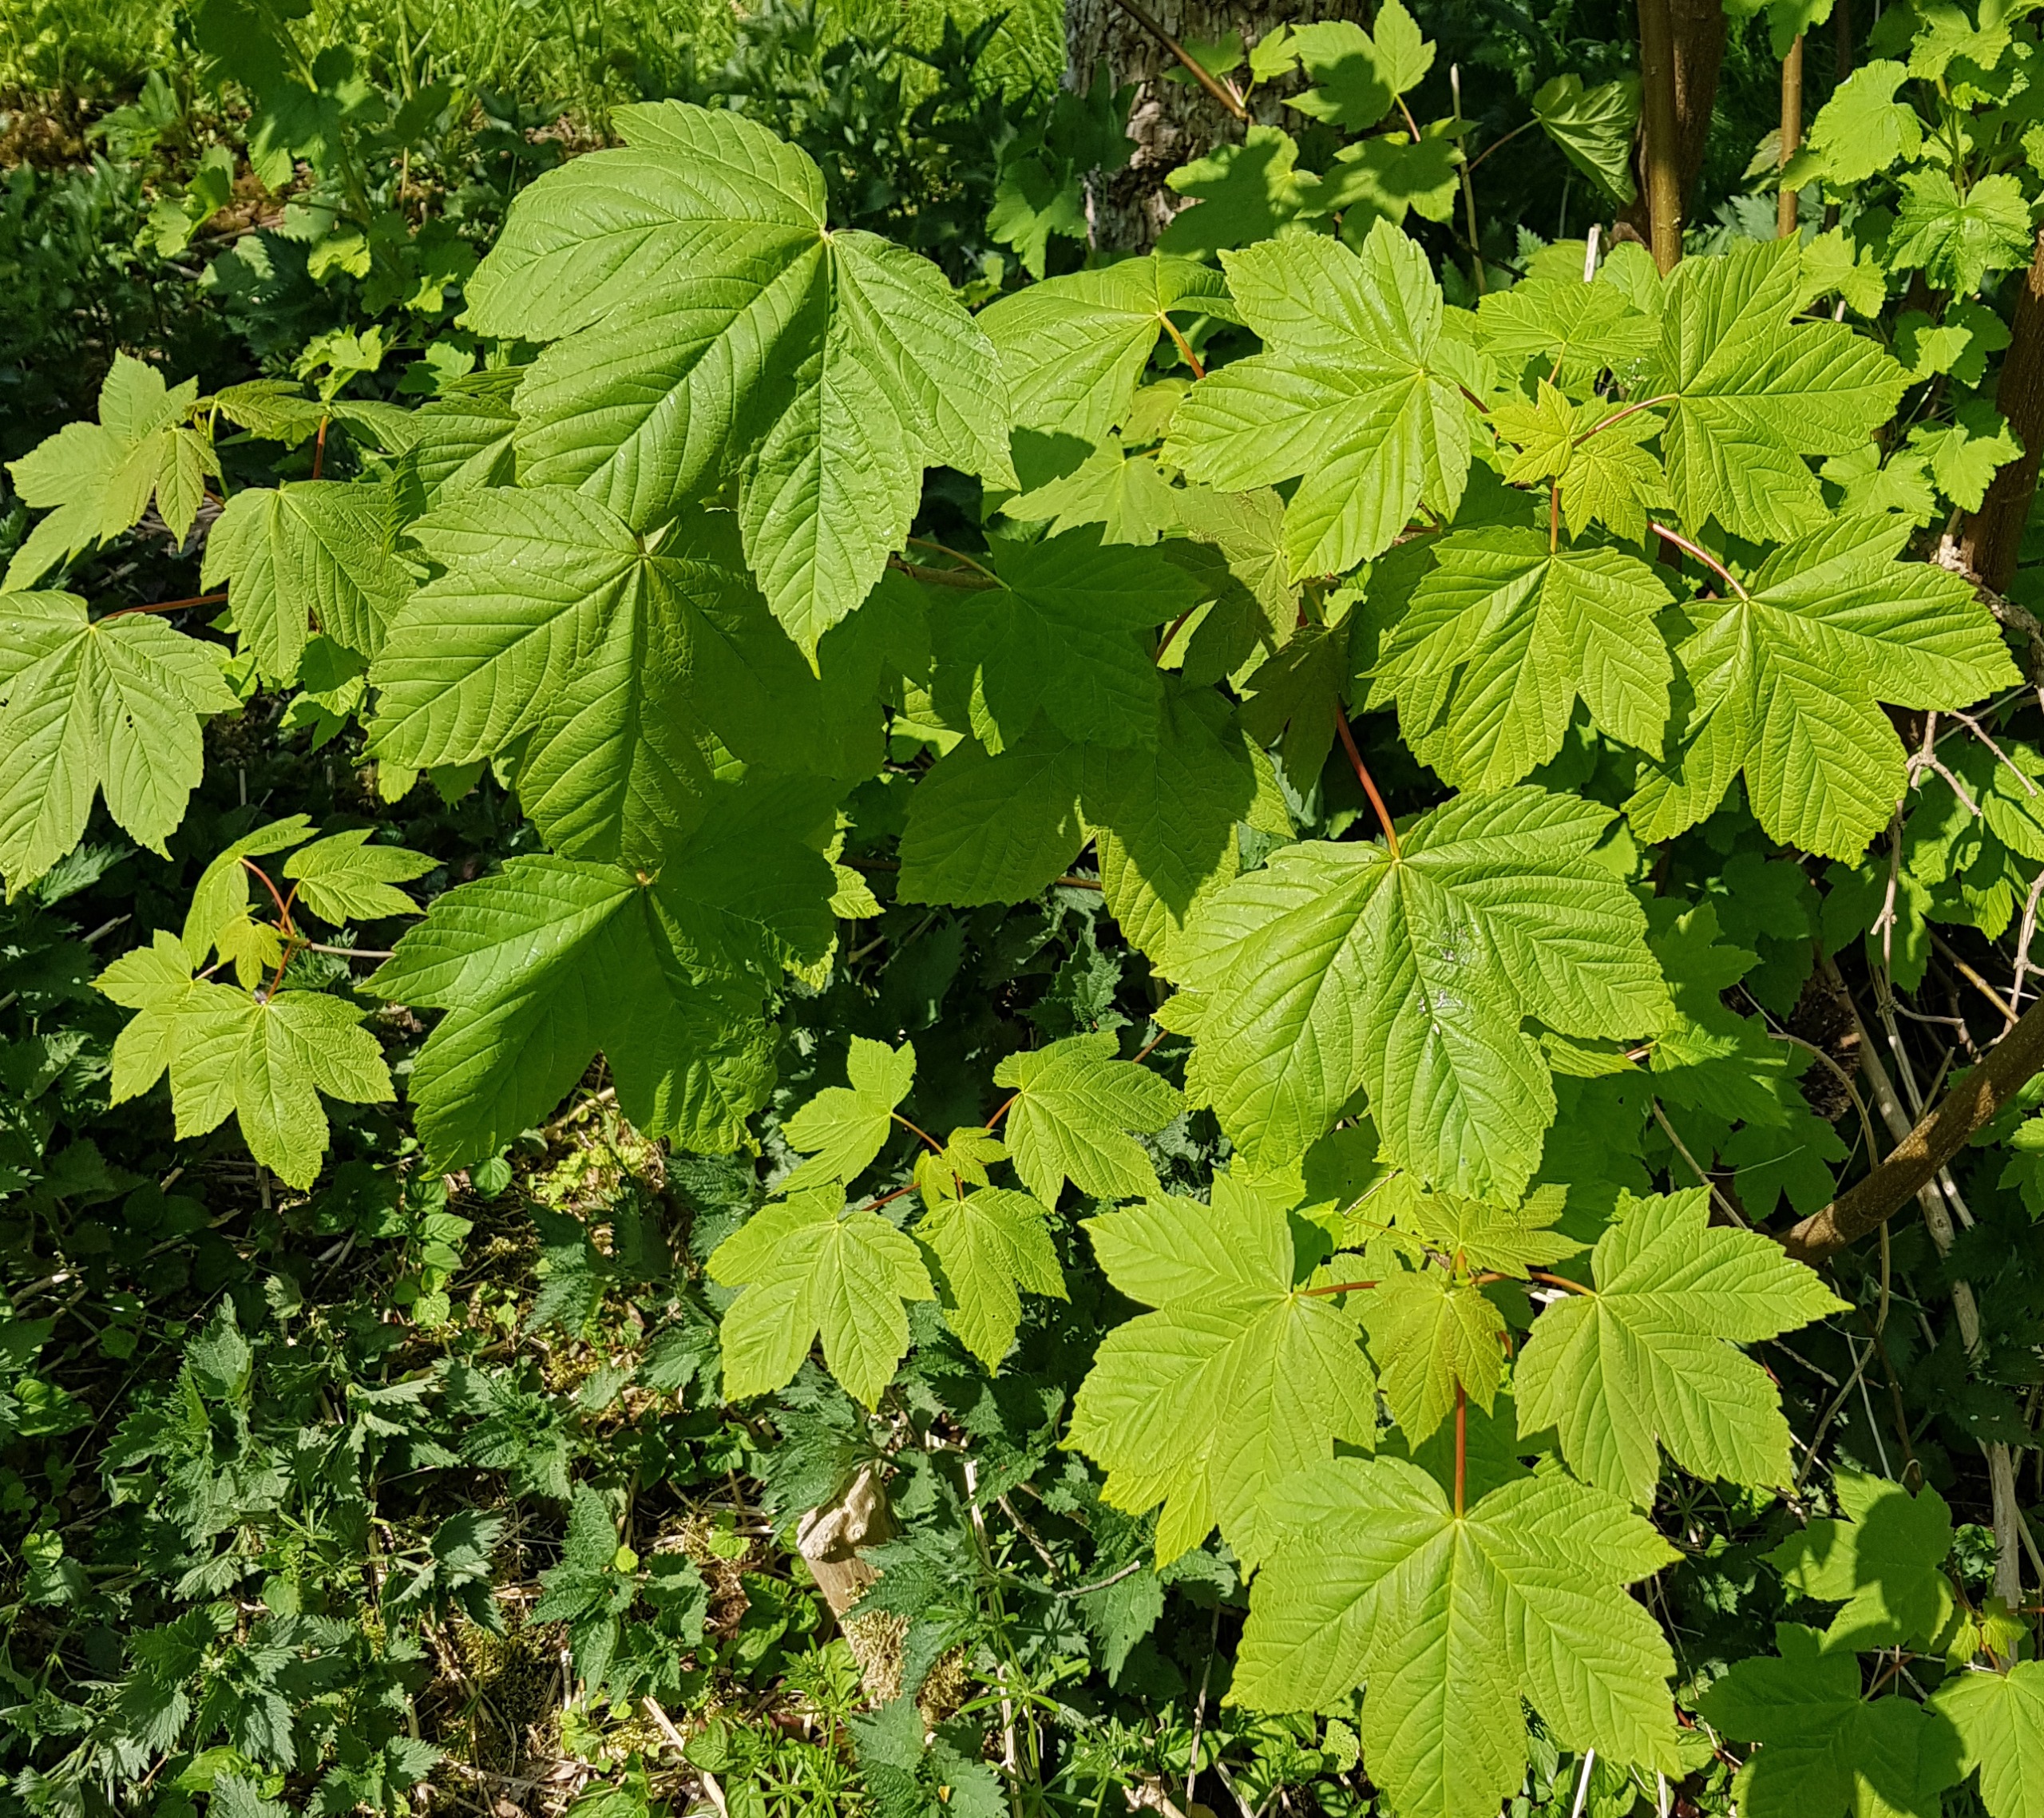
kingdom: Plantae
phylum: Tracheophyta
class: Magnoliopsida
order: Sapindales
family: Sapindaceae
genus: Acer
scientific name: Acer pseudoplatanus
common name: Ahorn
